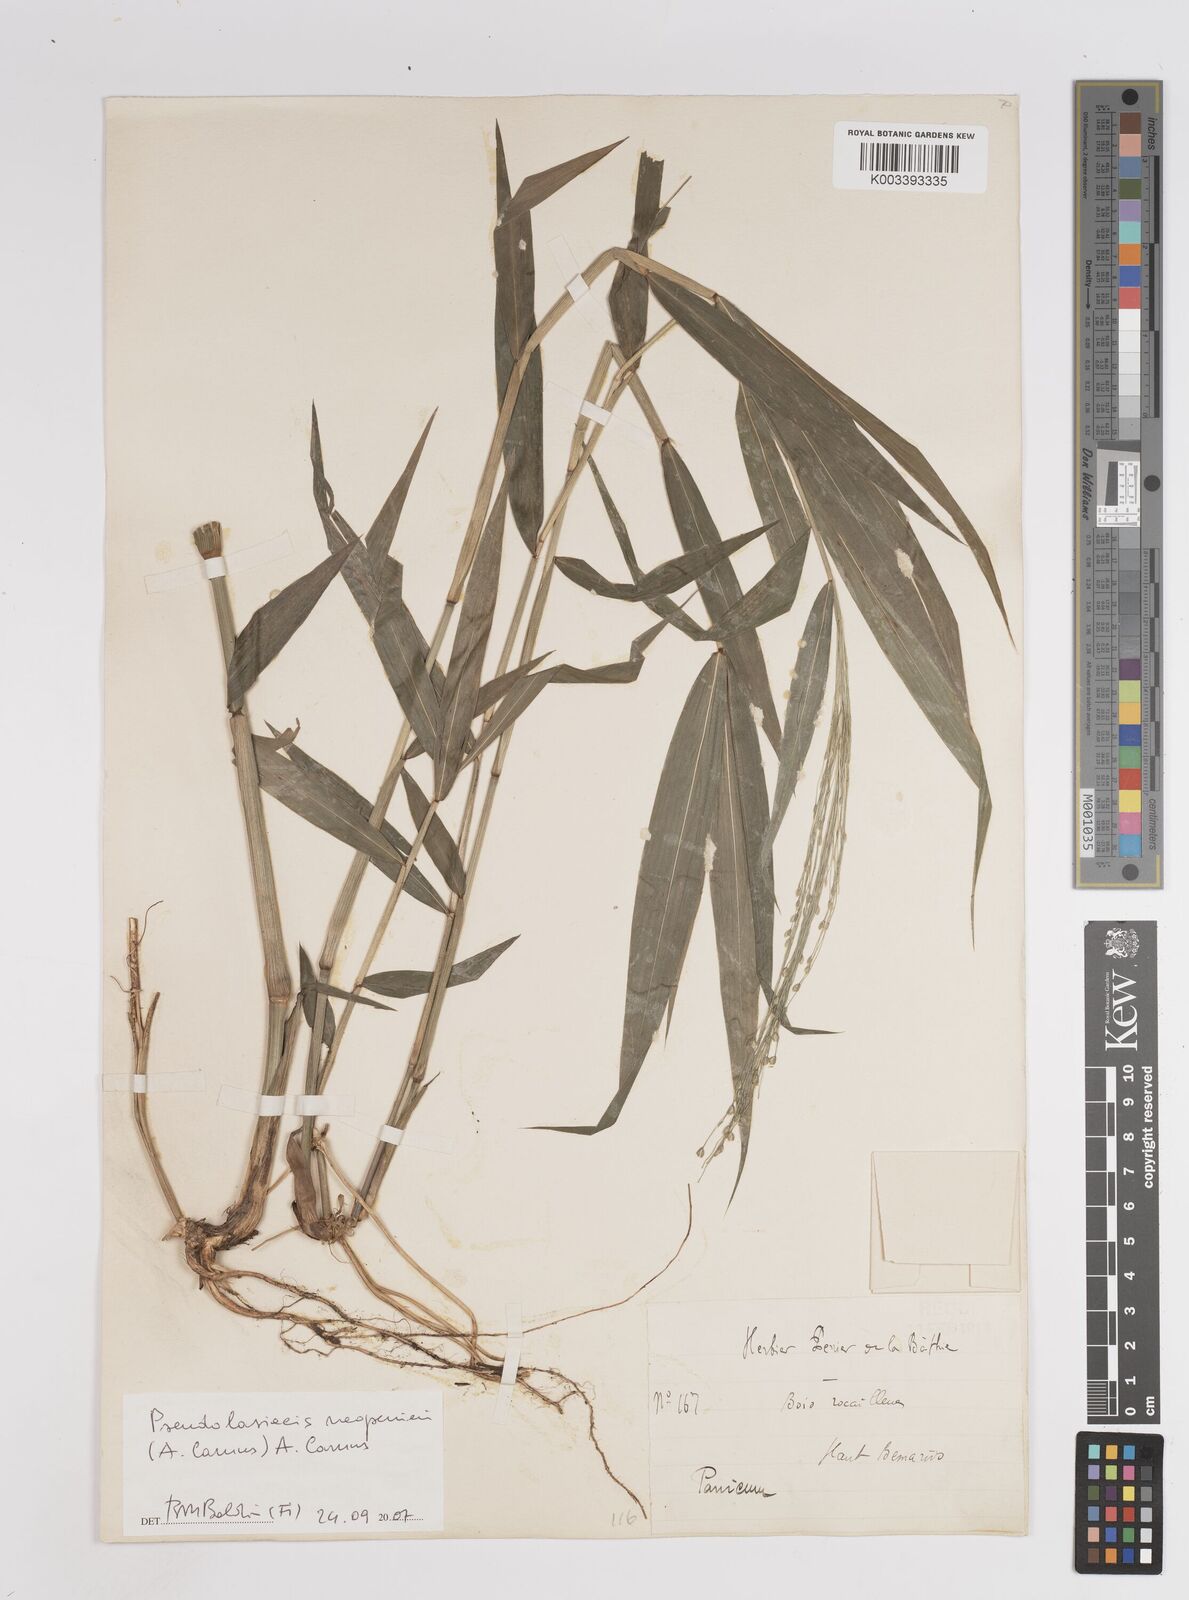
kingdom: Plantae
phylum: Tracheophyta
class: Liliopsida
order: Poales
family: Poaceae
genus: Pseudolasiacis
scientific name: Pseudolasiacis neoperrieri
